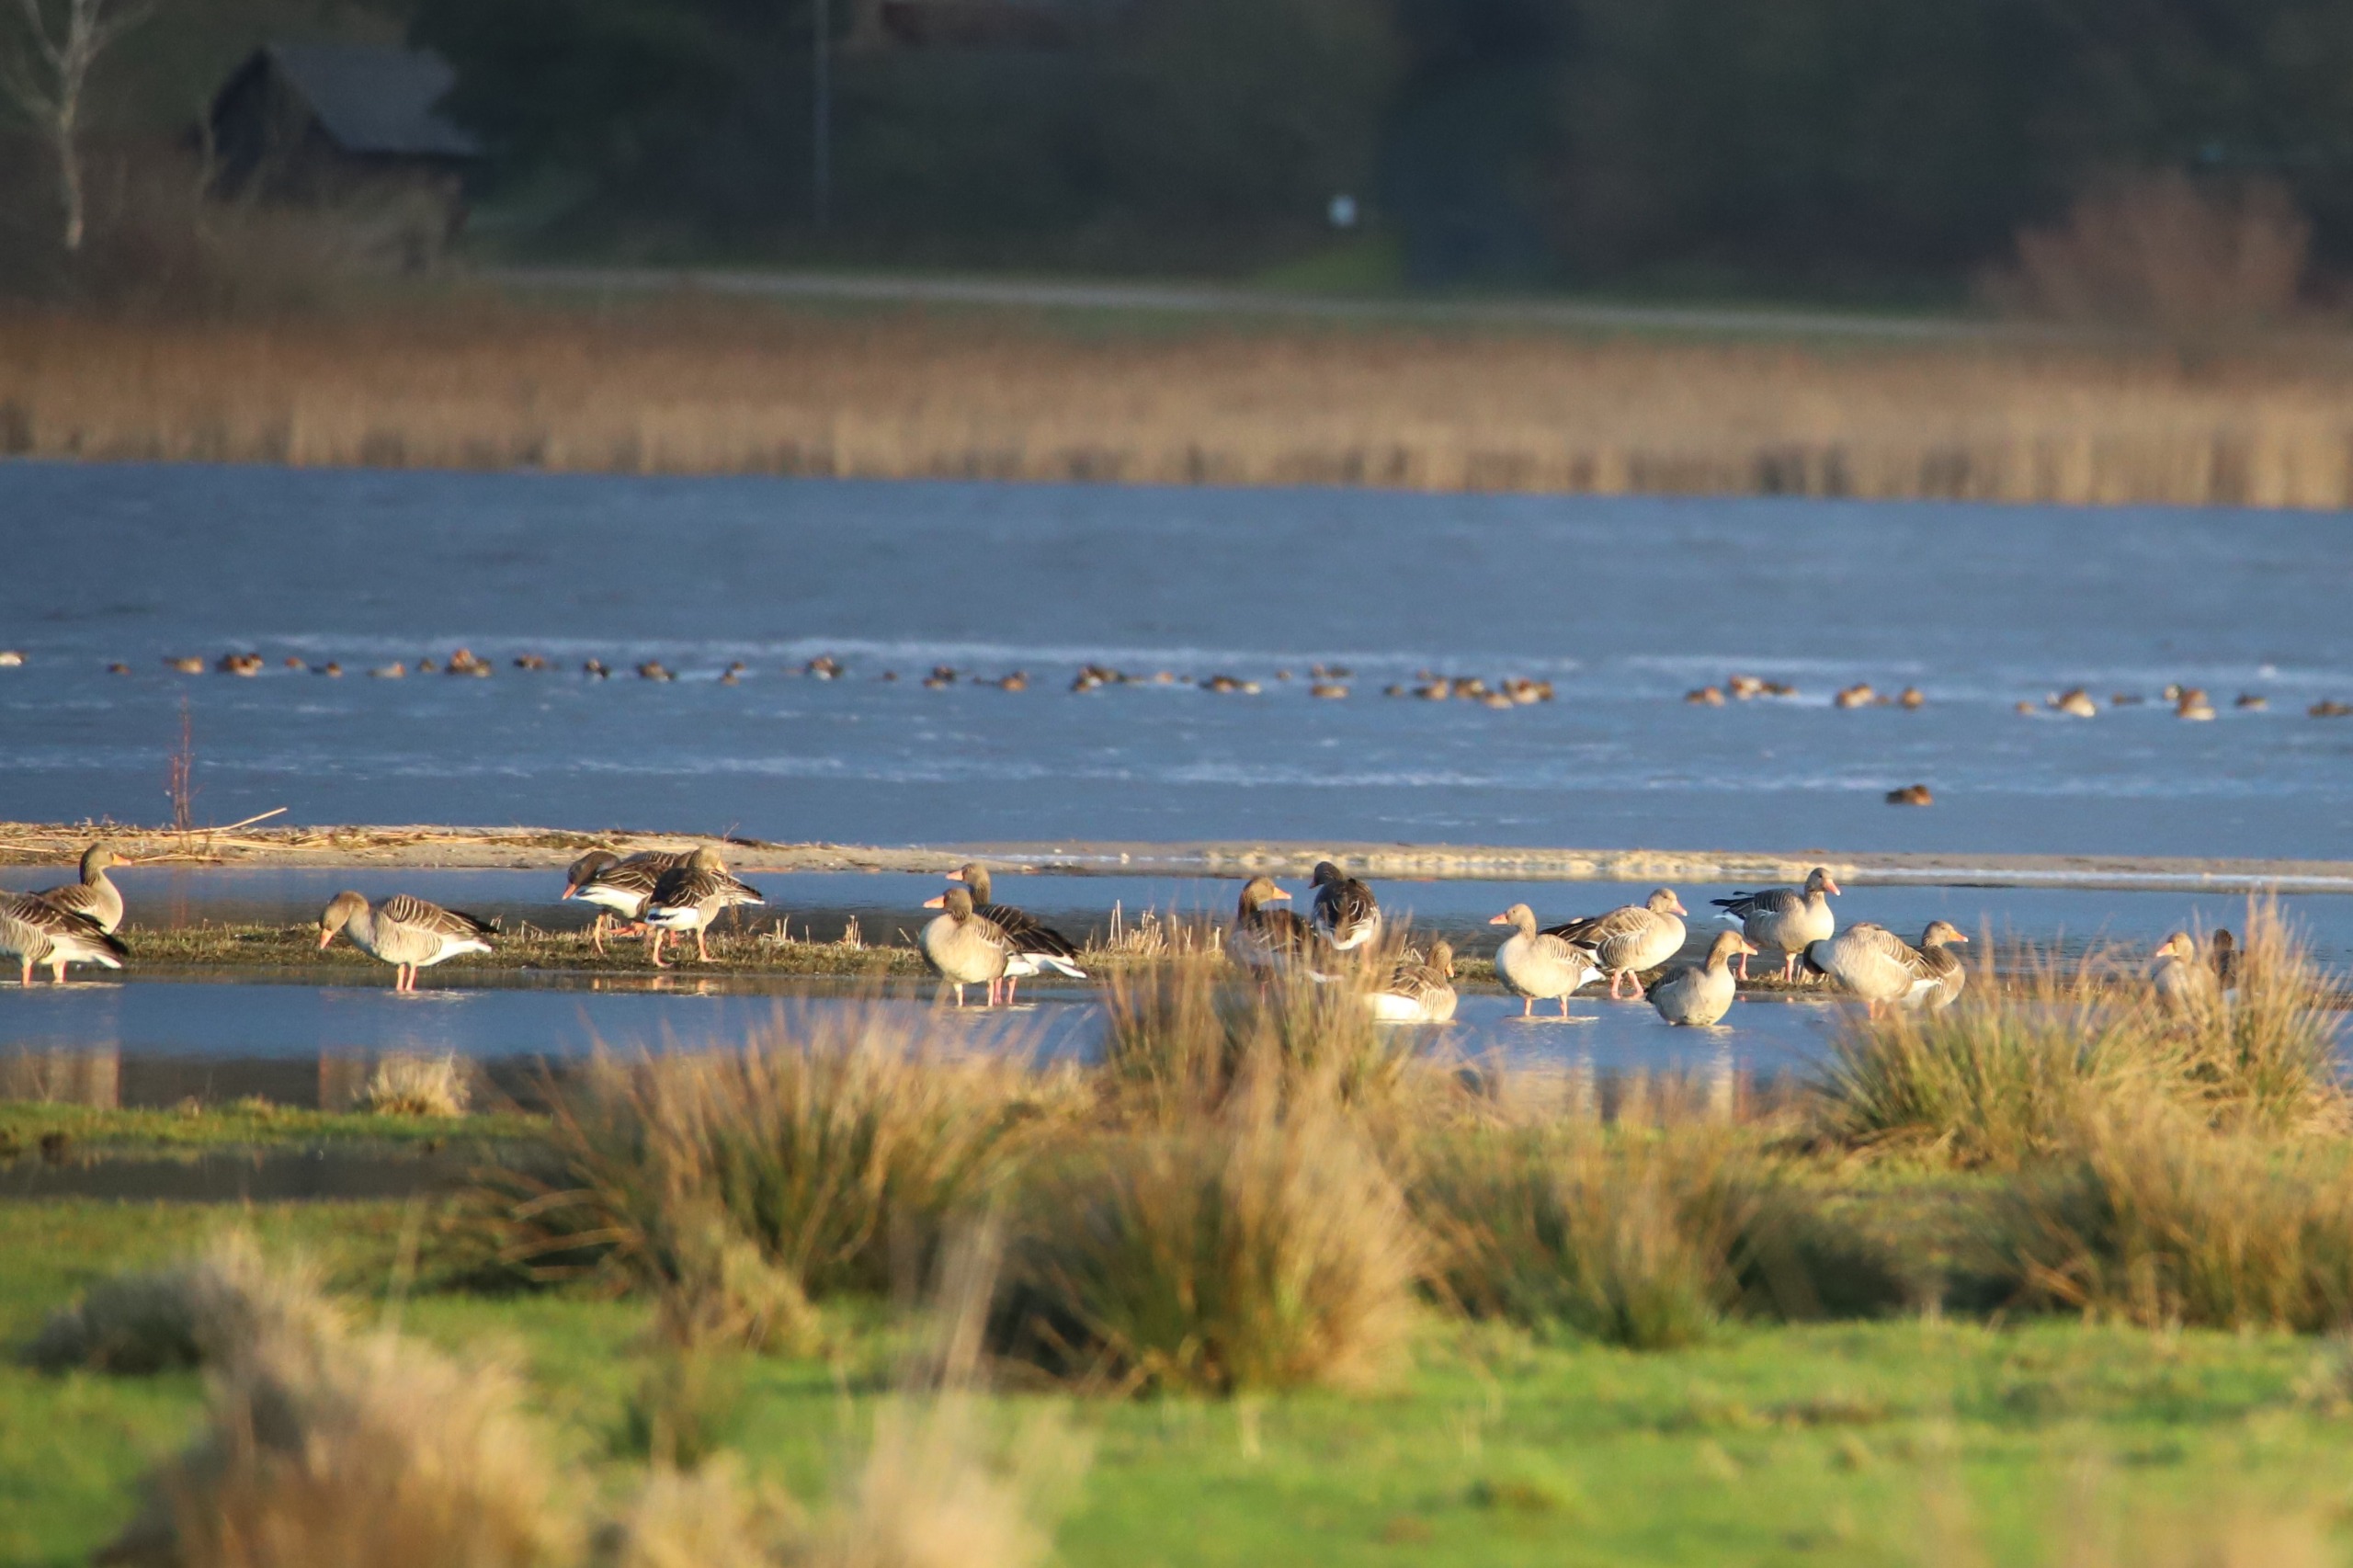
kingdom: Animalia
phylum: Chordata
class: Aves
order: Anseriformes
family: Anatidae
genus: Anser
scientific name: Anser anser
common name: Grågås
